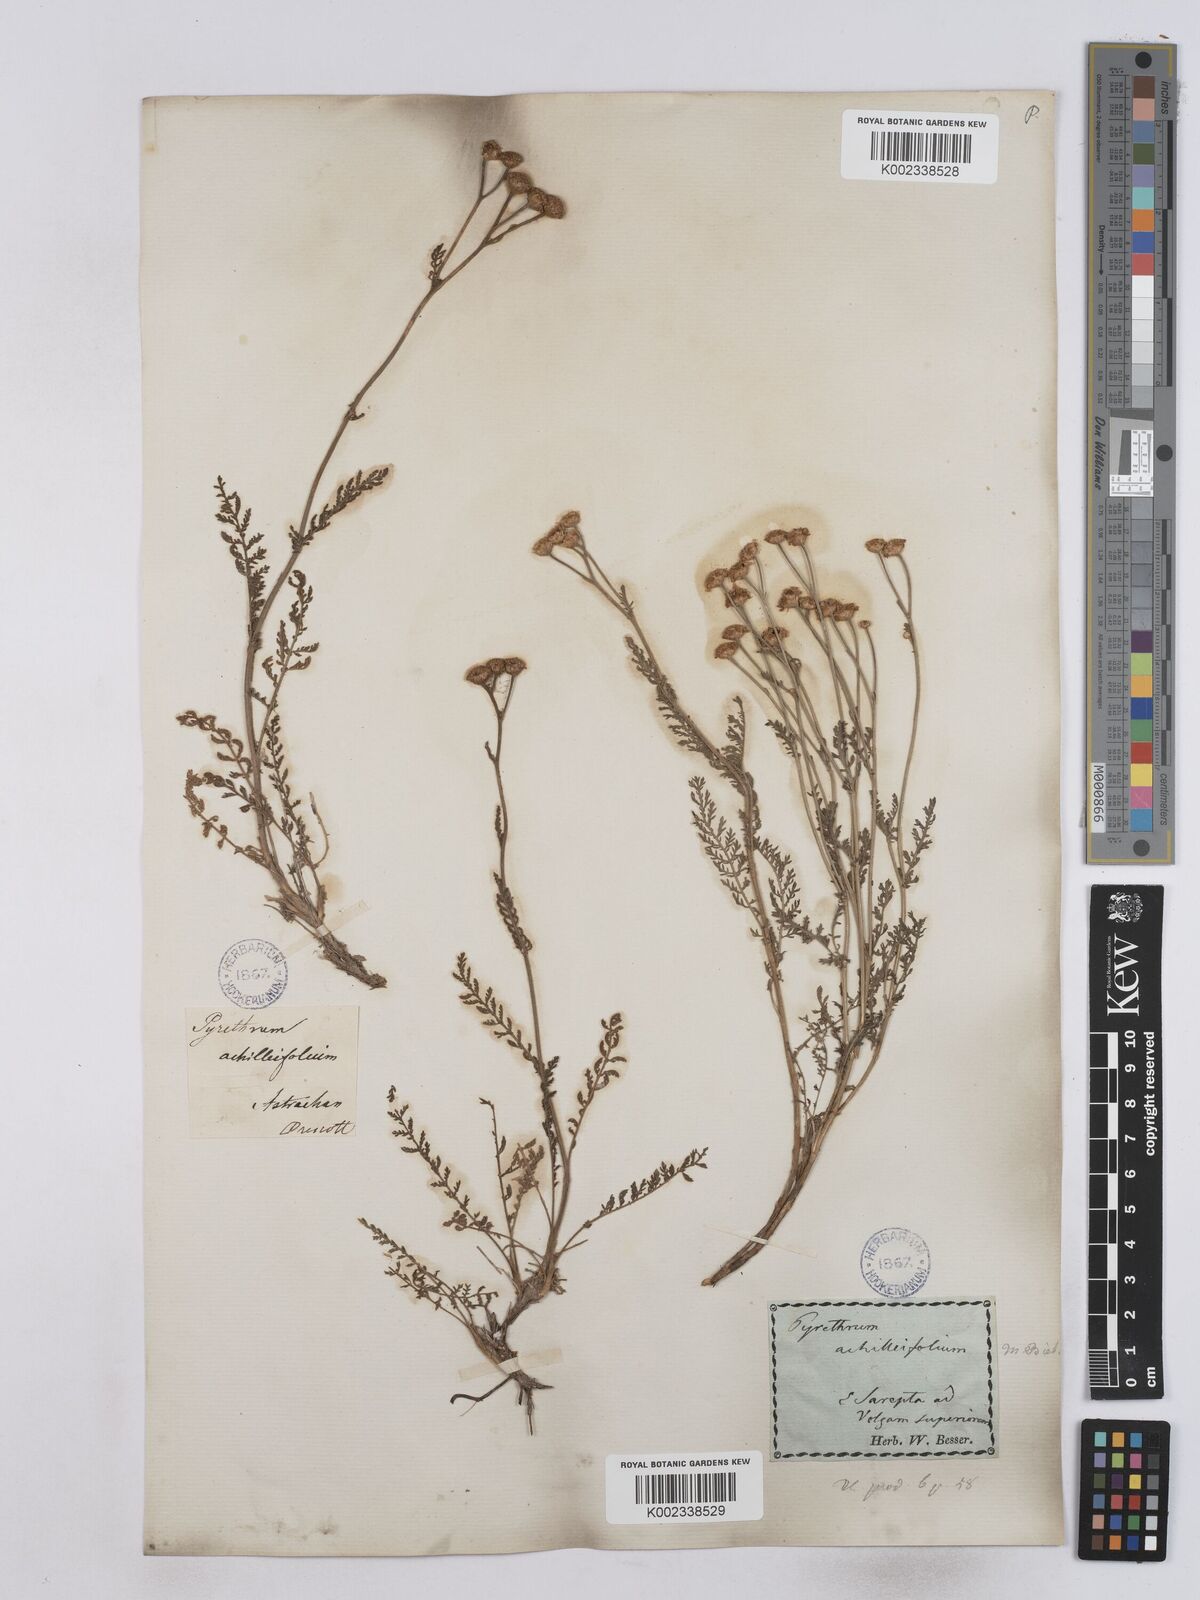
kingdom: Plantae
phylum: Tracheophyta
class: Magnoliopsida
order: Asterales
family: Asteraceae
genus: Tanacetum
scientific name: Tanacetum achilleifolium
